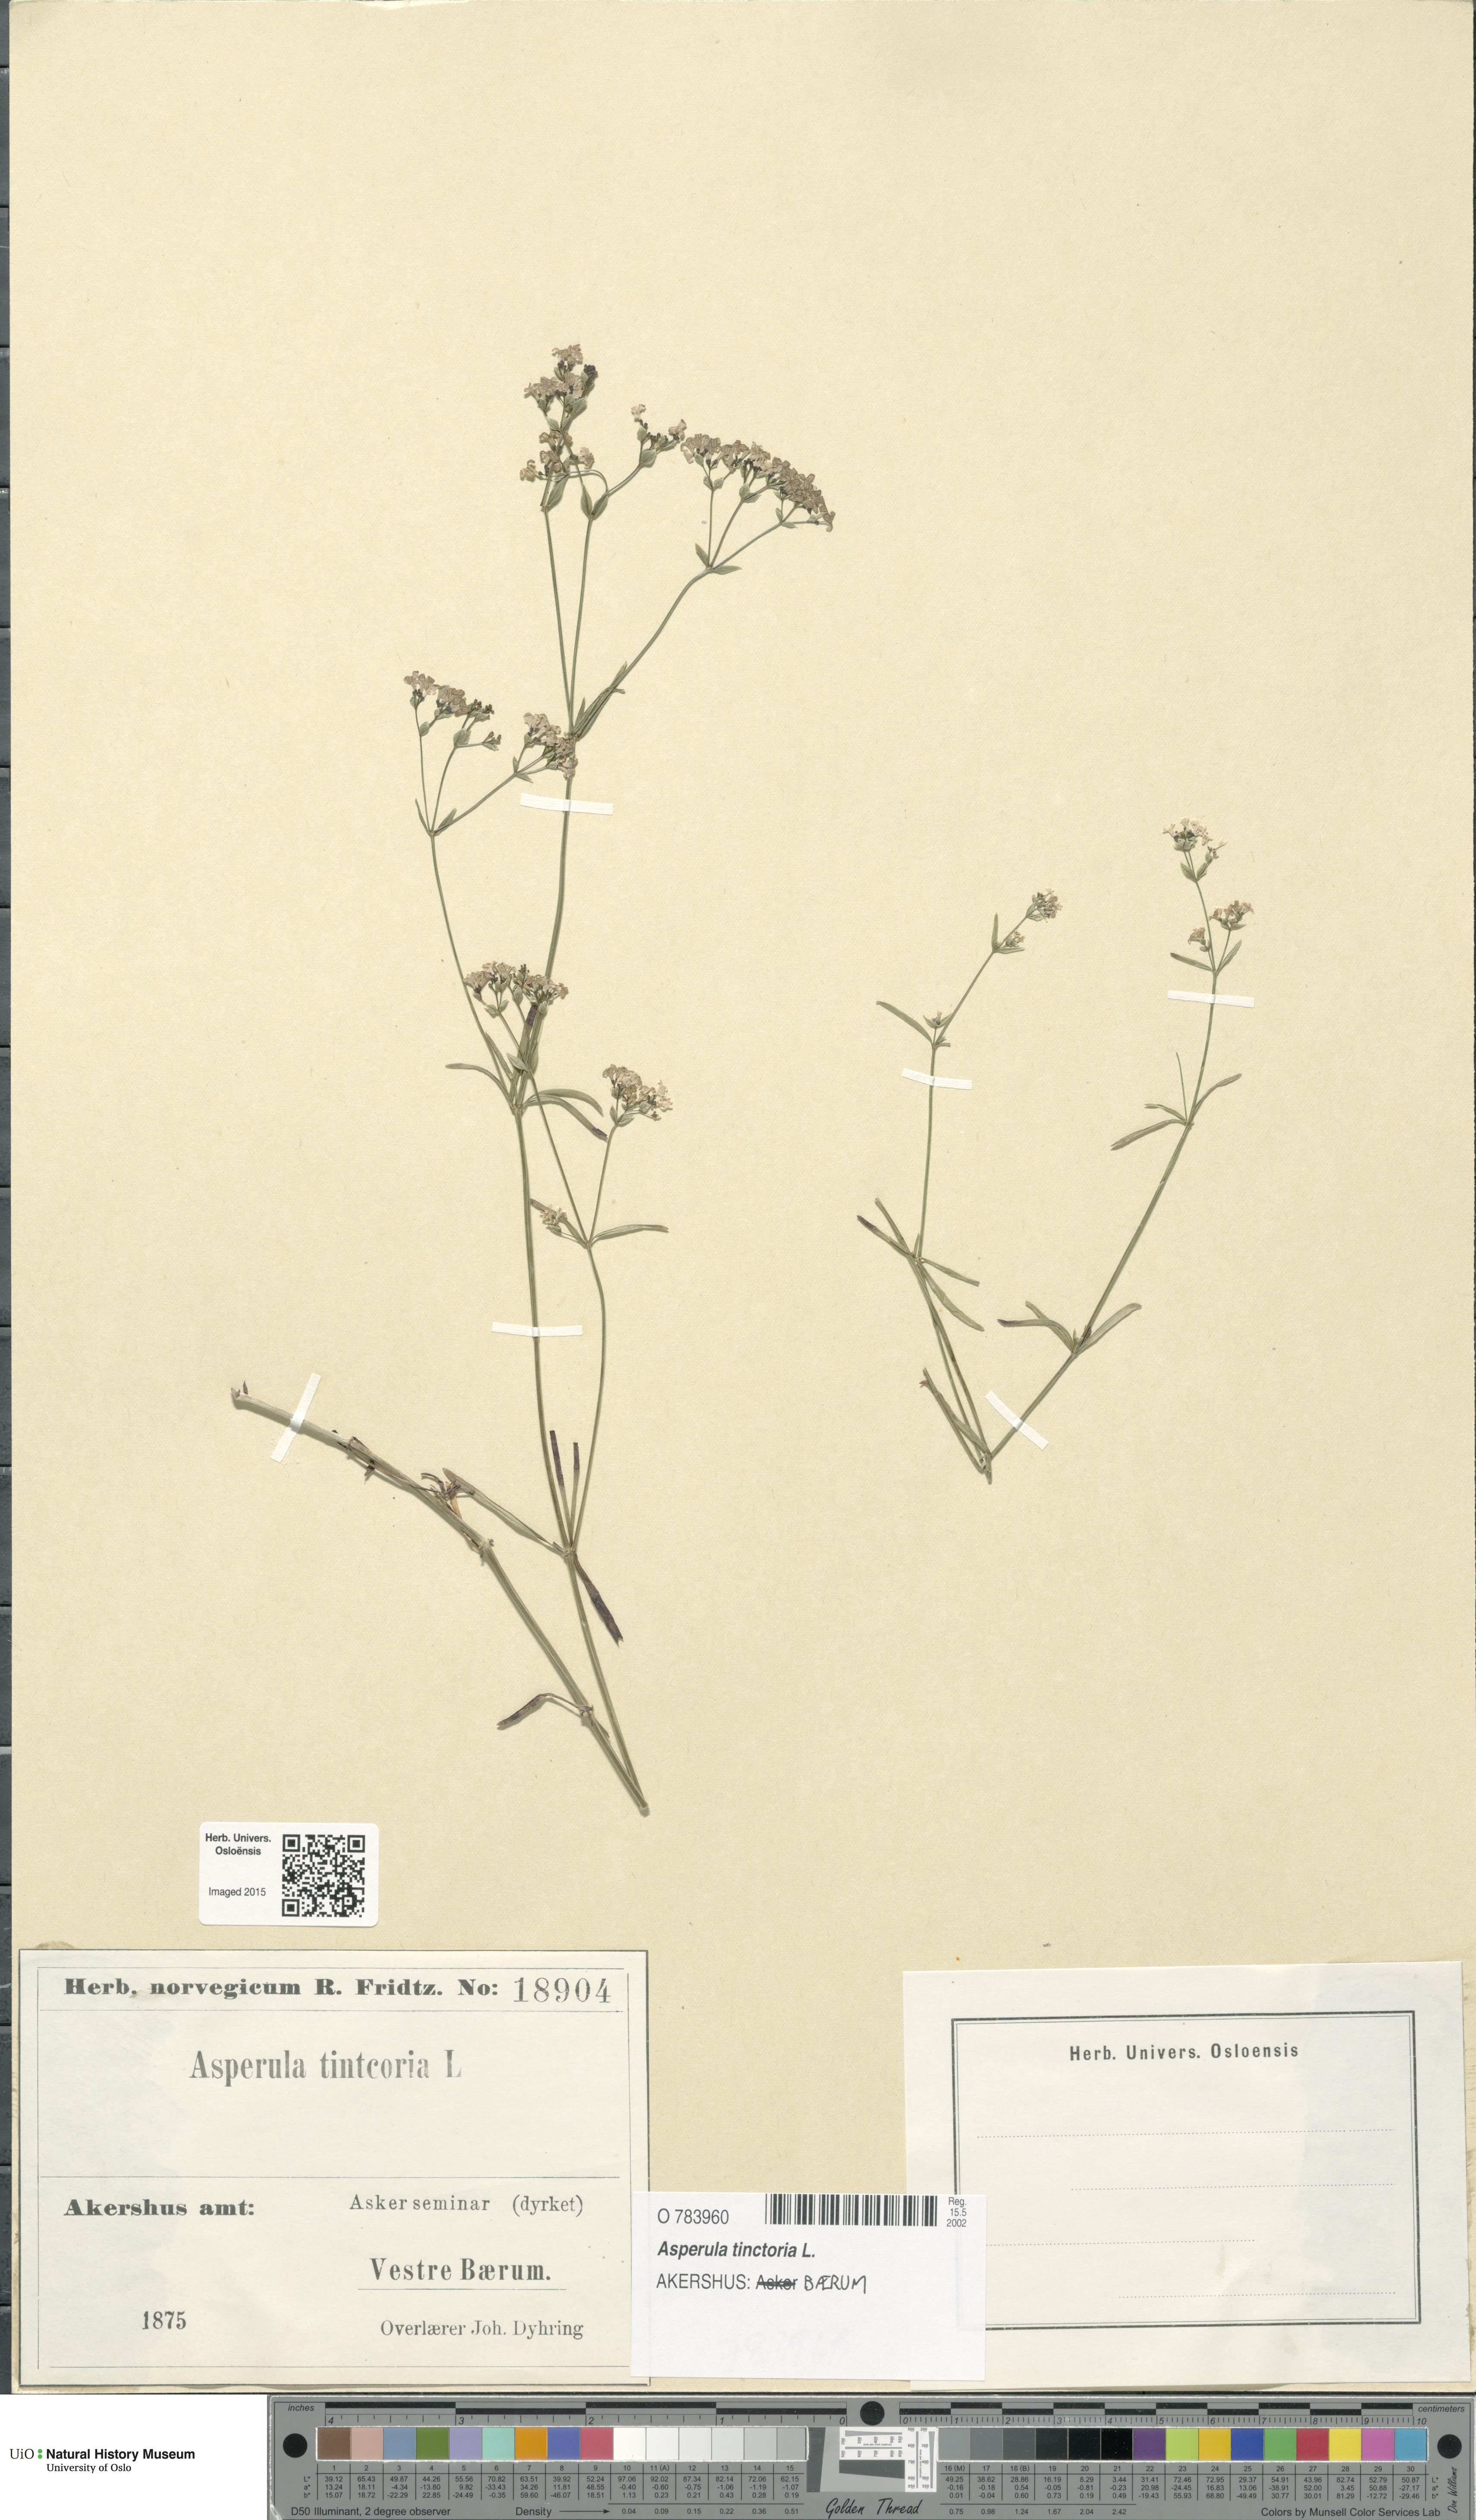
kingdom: Plantae
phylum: Tracheophyta
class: Magnoliopsida
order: Gentianales
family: Rubiaceae
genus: Asperula
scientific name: Asperula tinctoria
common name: Dyer's woodruff
